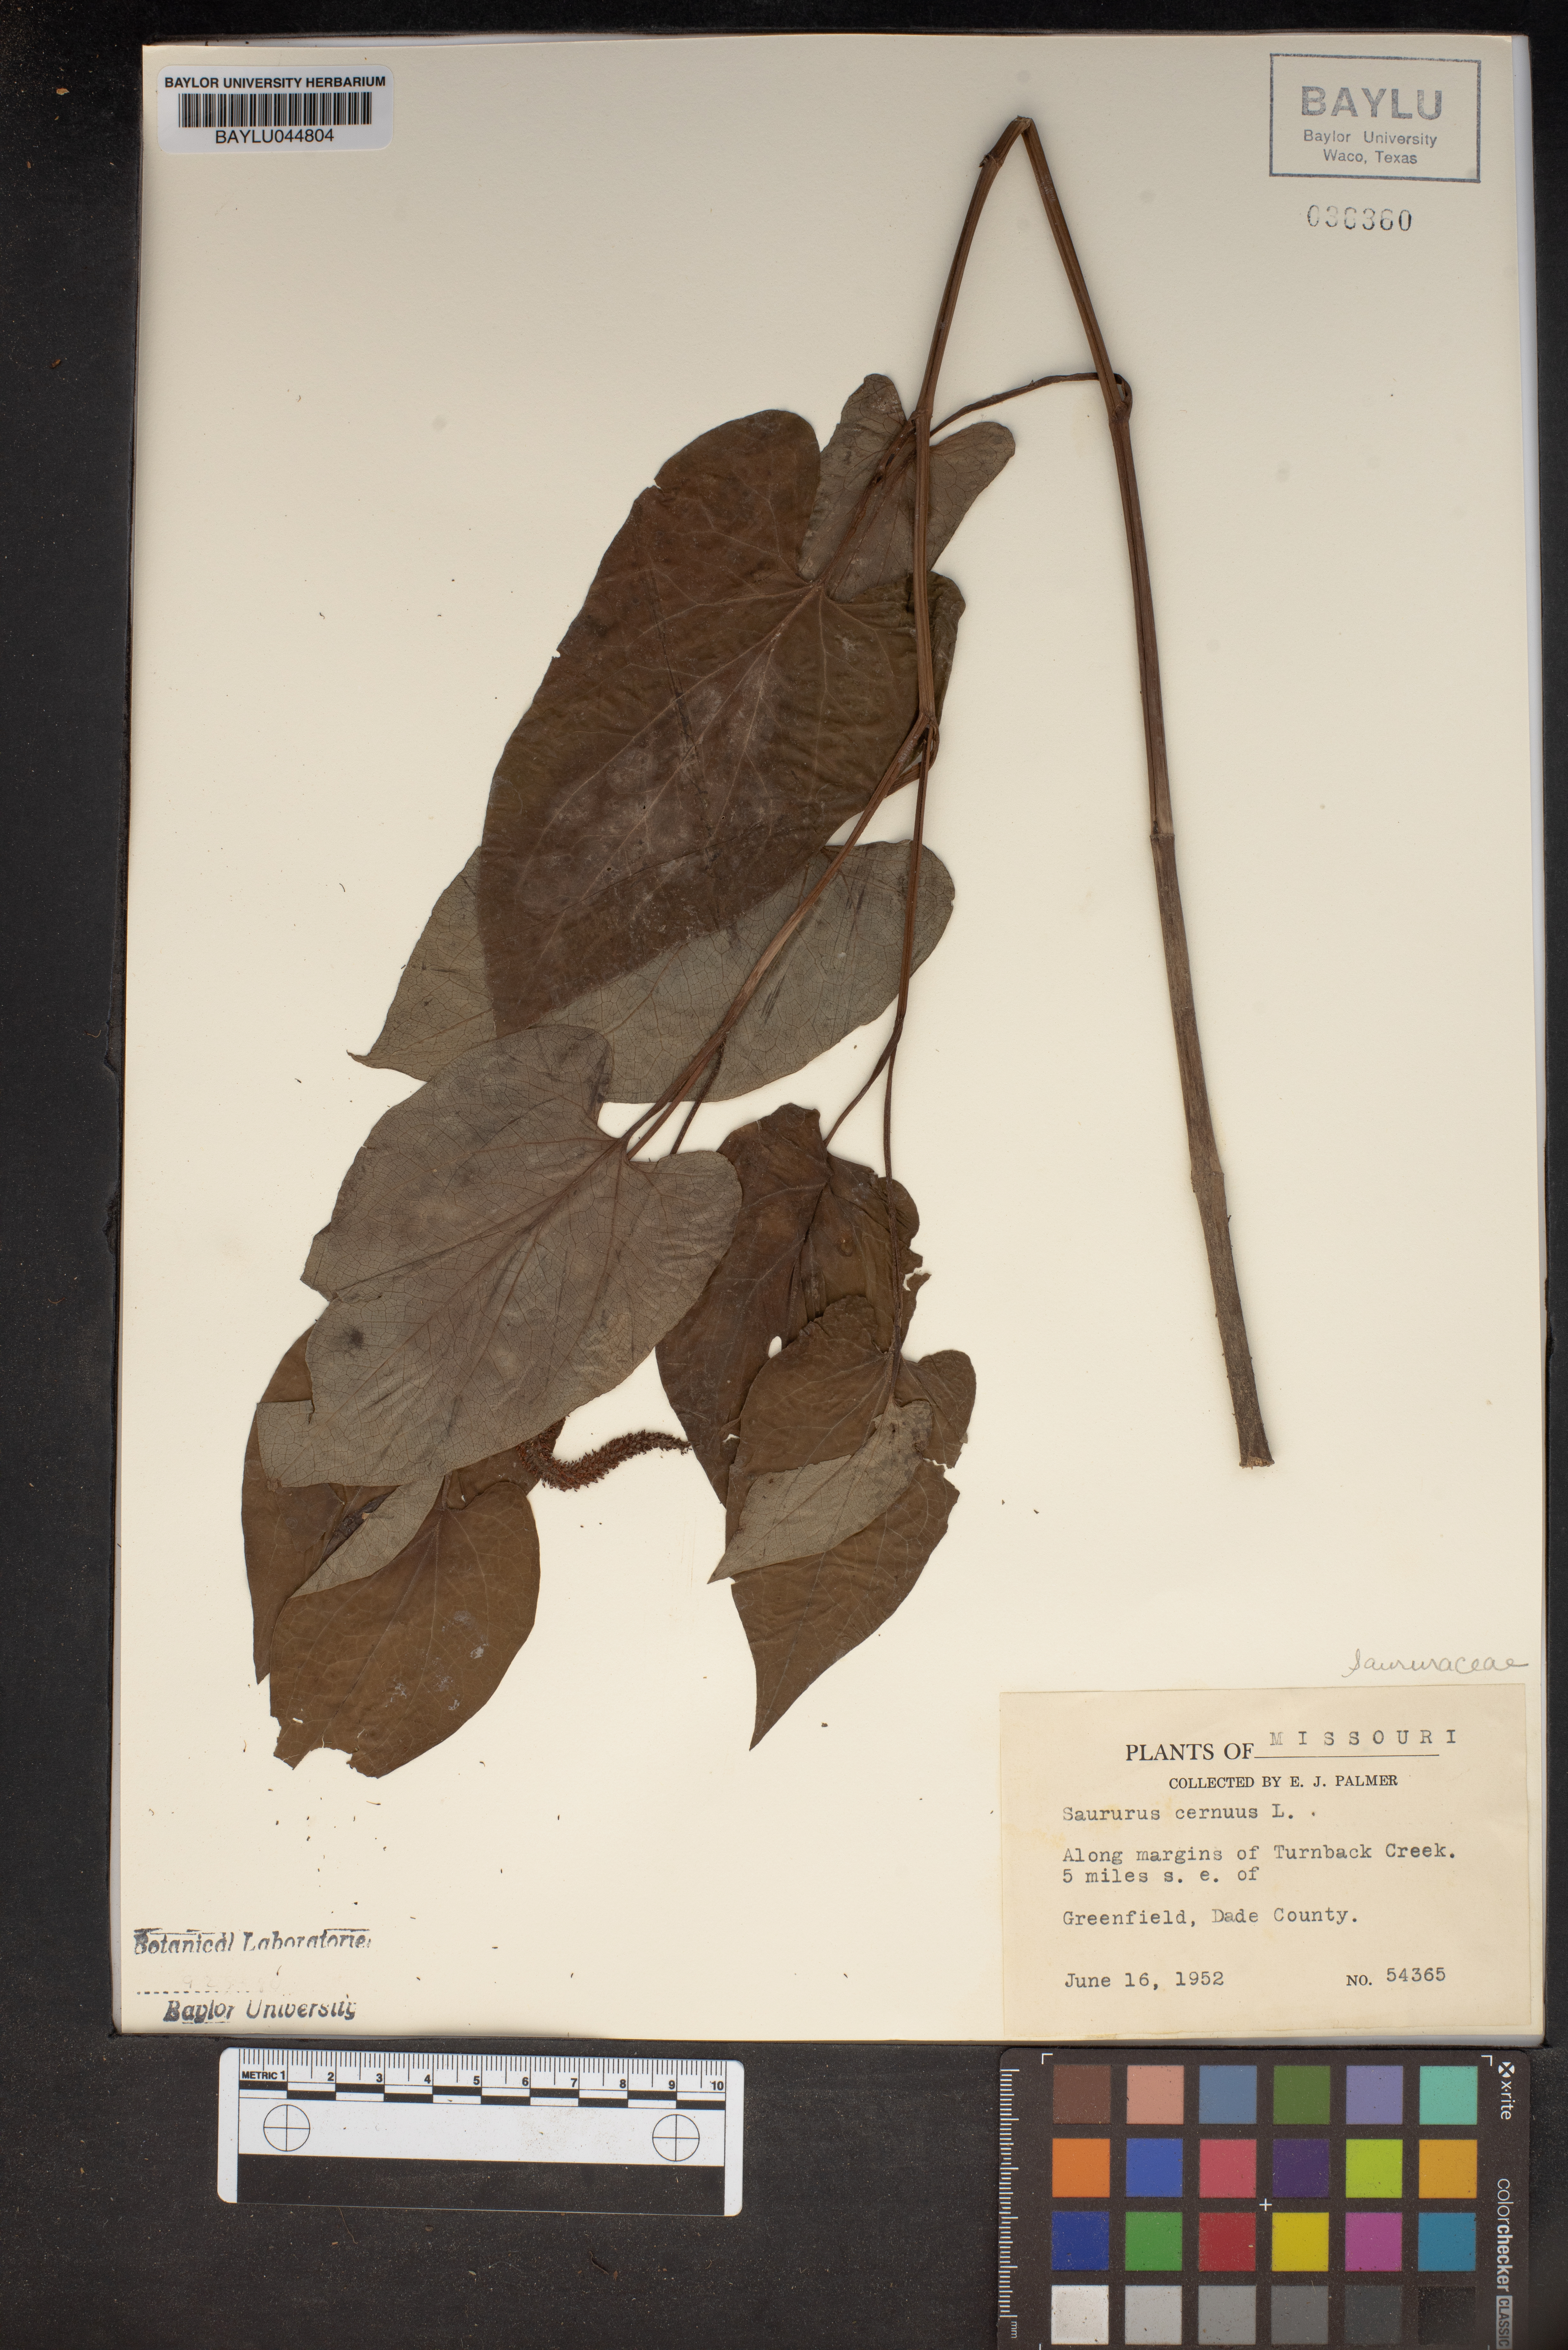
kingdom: Plantae
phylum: Tracheophyta
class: Magnoliopsida
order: Piperales
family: Saururaceae
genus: Saururus
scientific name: Saururus cernuus
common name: Lizard's-tail
